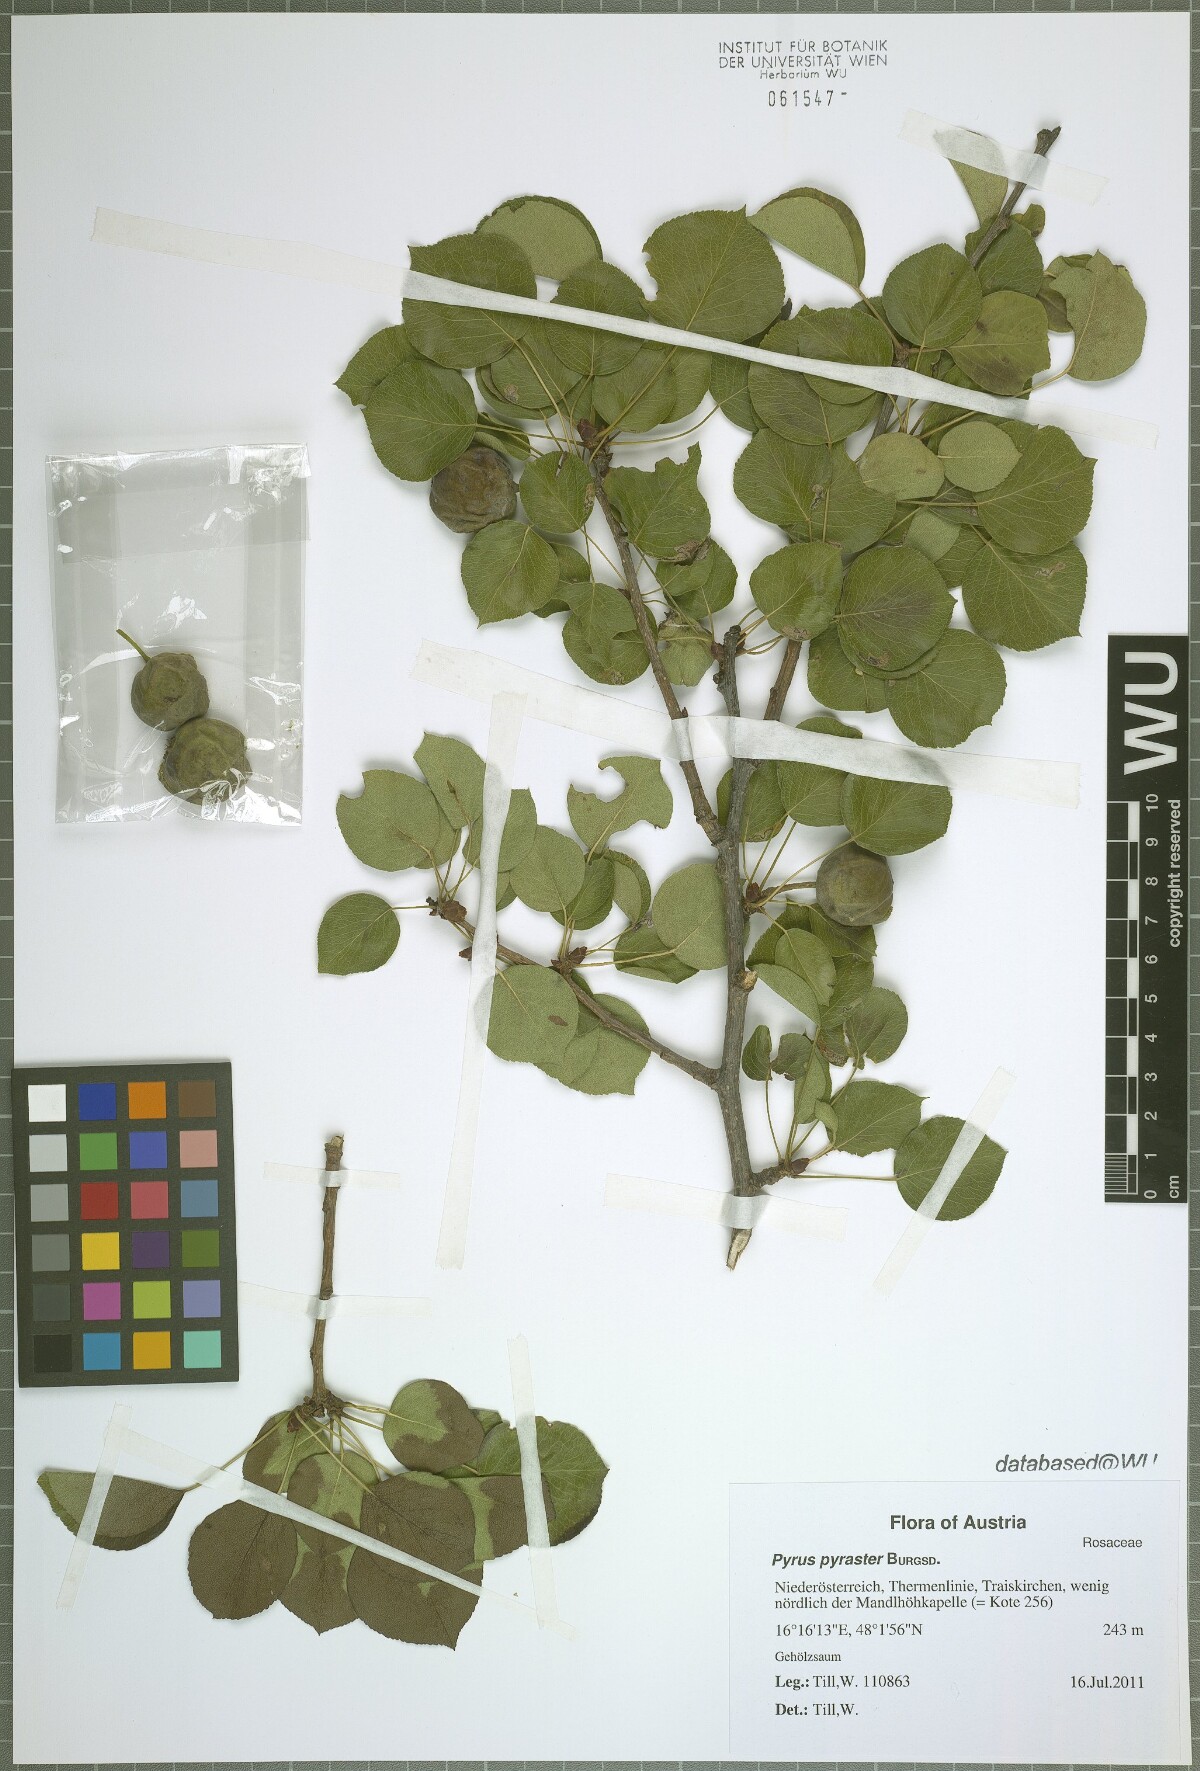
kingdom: Plantae
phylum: Tracheophyta
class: Magnoliopsida
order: Rosales
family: Rosaceae
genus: Pyrus
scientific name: Pyrus pyraster
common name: Wild pear
